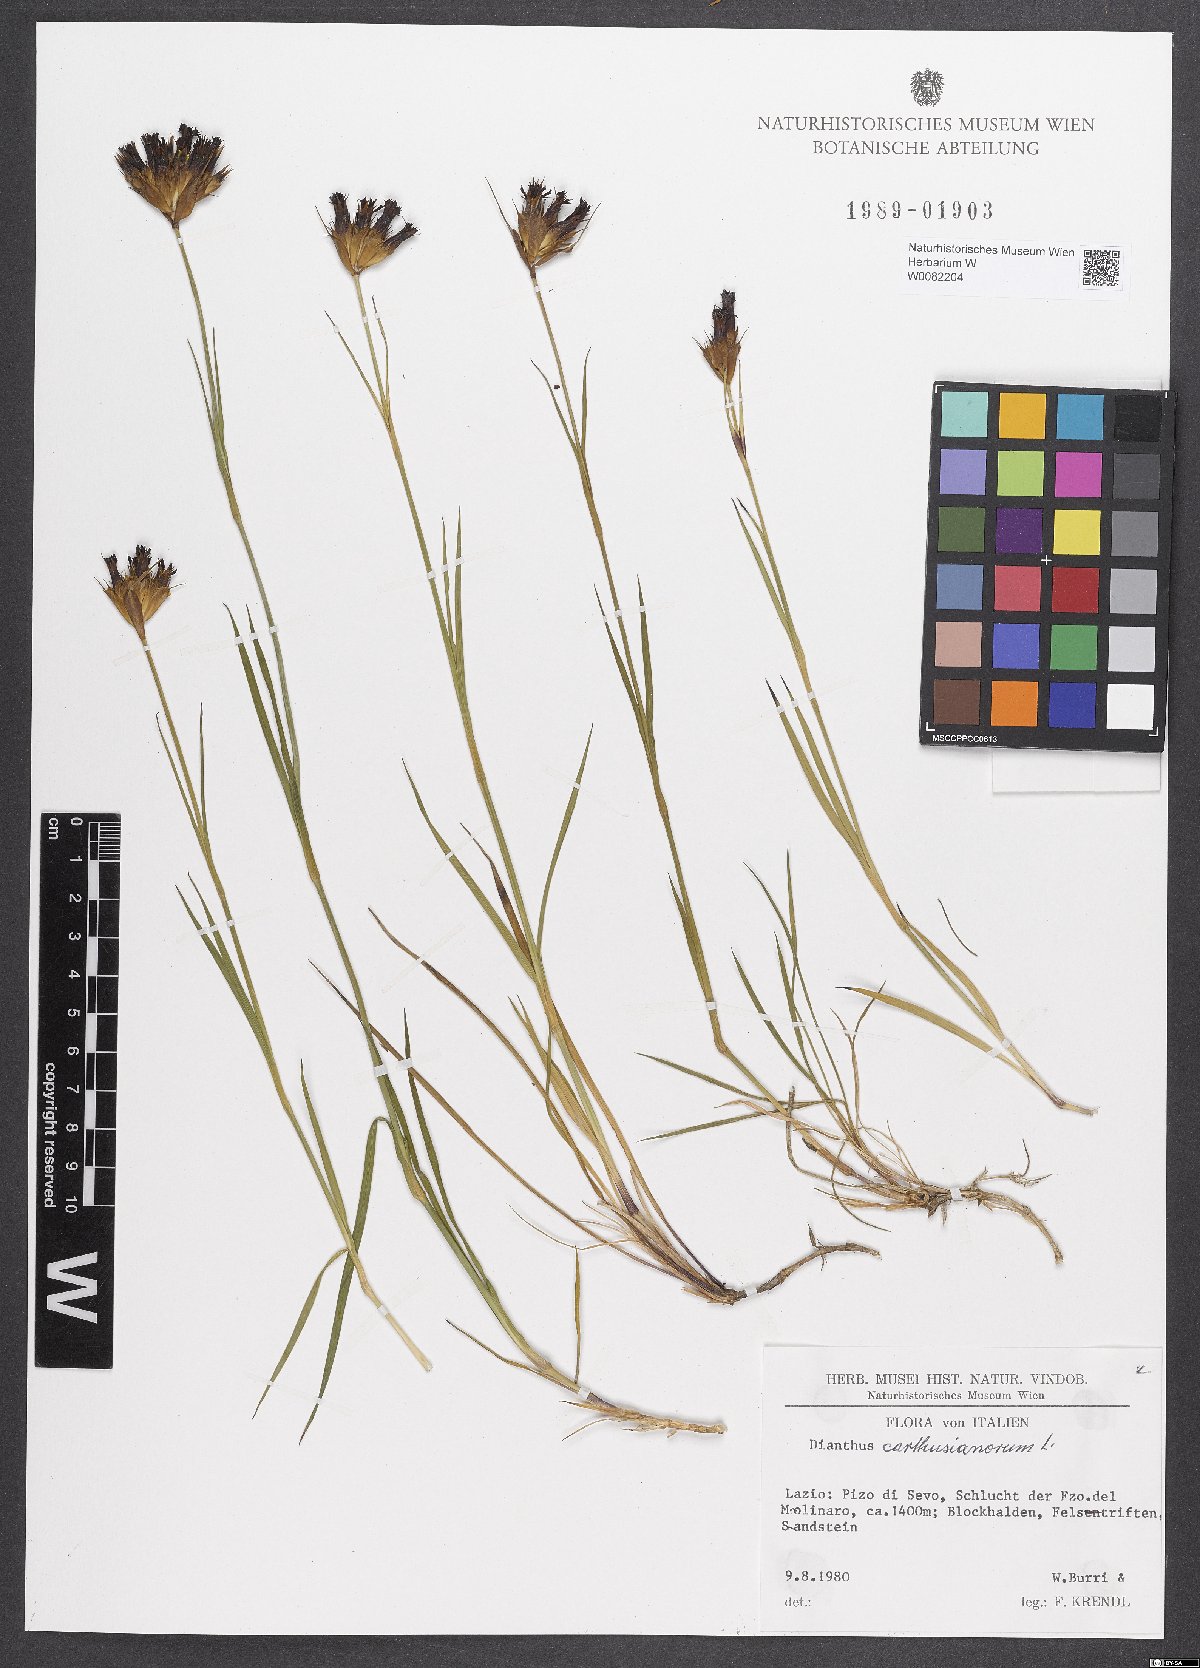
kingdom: Plantae
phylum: Tracheophyta
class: Magnoliopsida
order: Caryophyllales
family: Caryophyllaceae
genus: Dianthus
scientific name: Dianthus carthusianorum
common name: Carthusian pink
